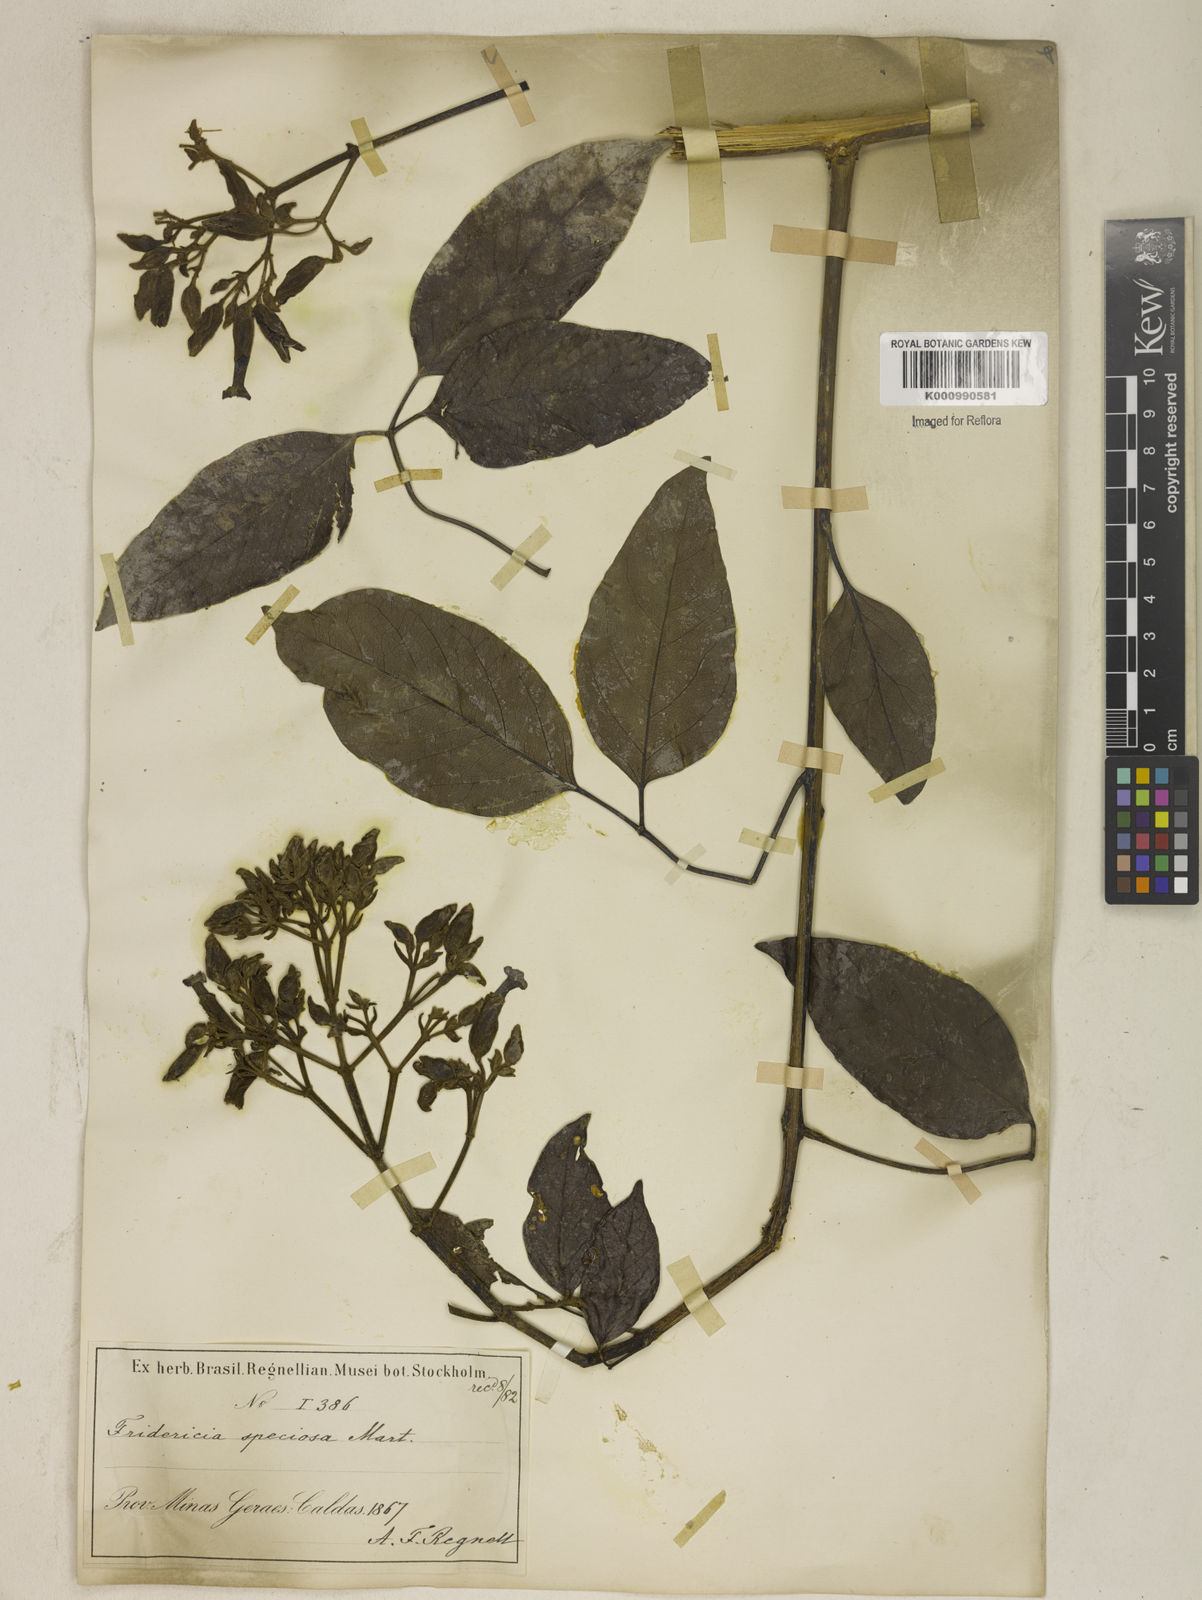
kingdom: Plantae
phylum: Tracheophyta
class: Magnoliopsida
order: Lamiales
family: Bignoniaceae
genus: Fridericia
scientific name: Fridericia speciosa
